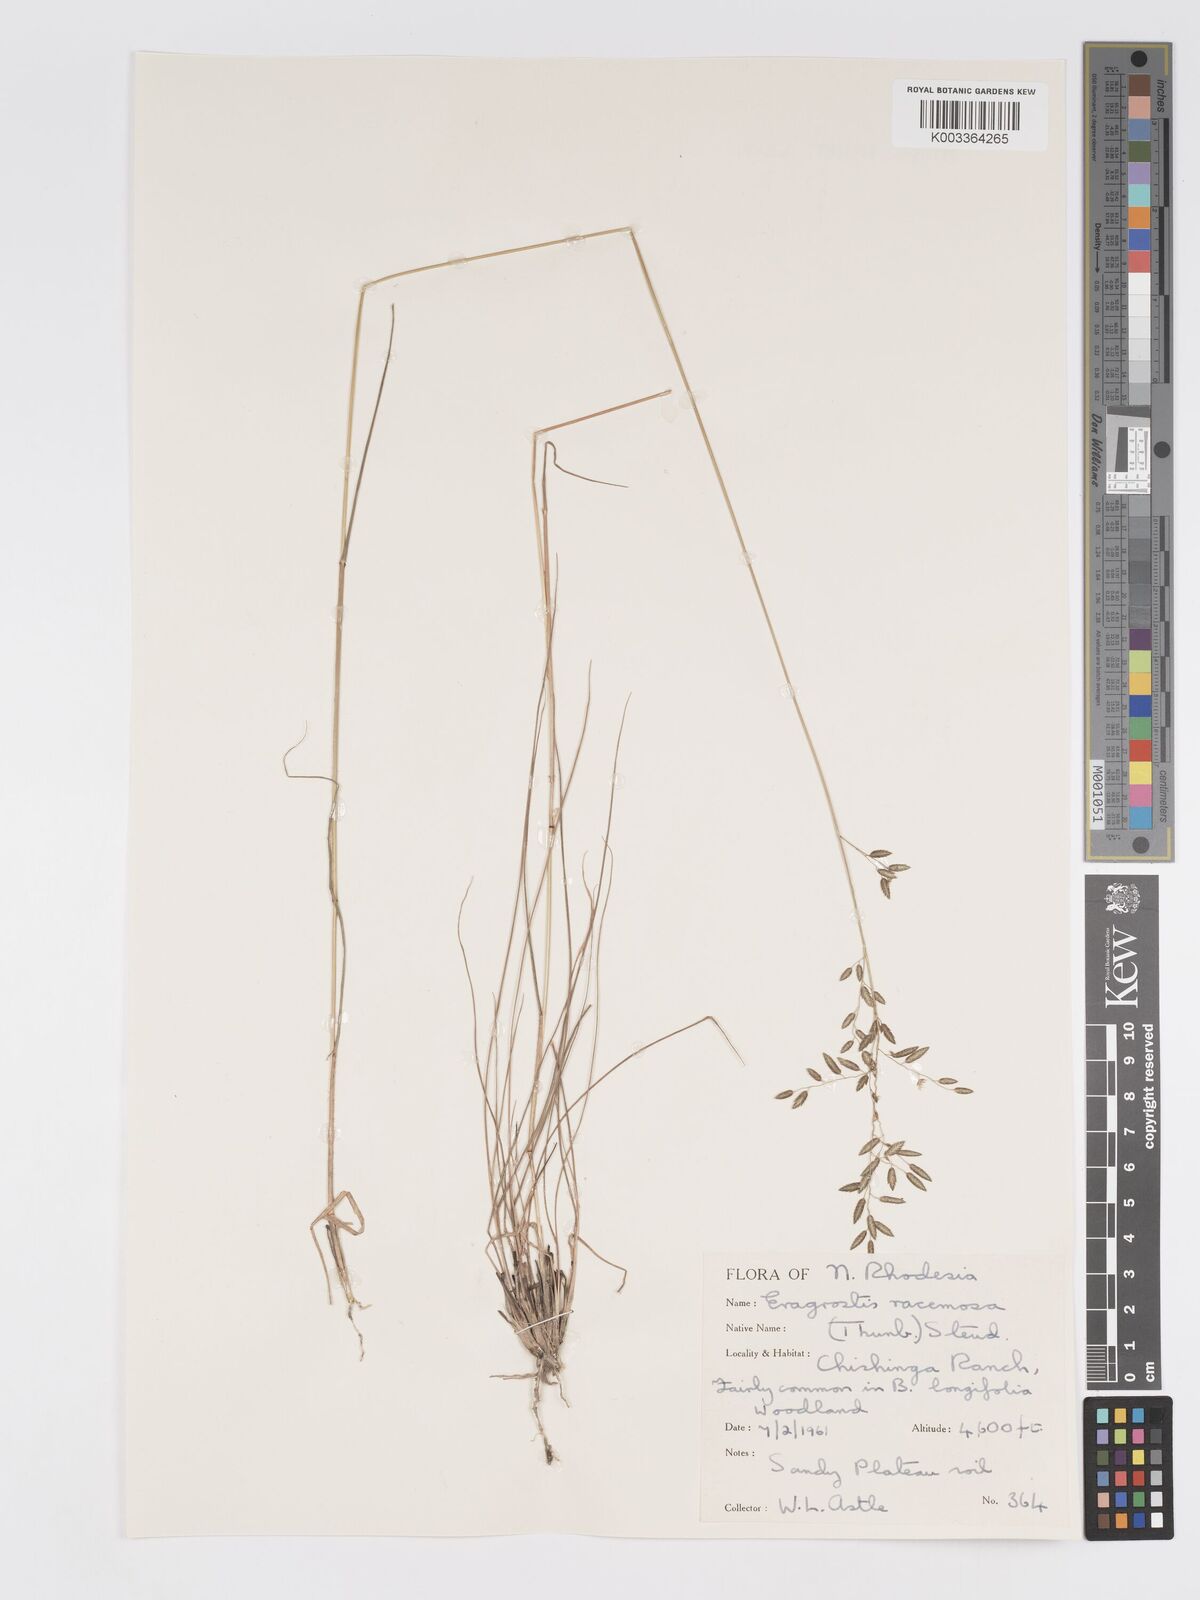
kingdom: Plantae
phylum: Tracheophyta
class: Liliopsida
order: Poales
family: Poaceae
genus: Eragrostis
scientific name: Eragrostis racemosa
